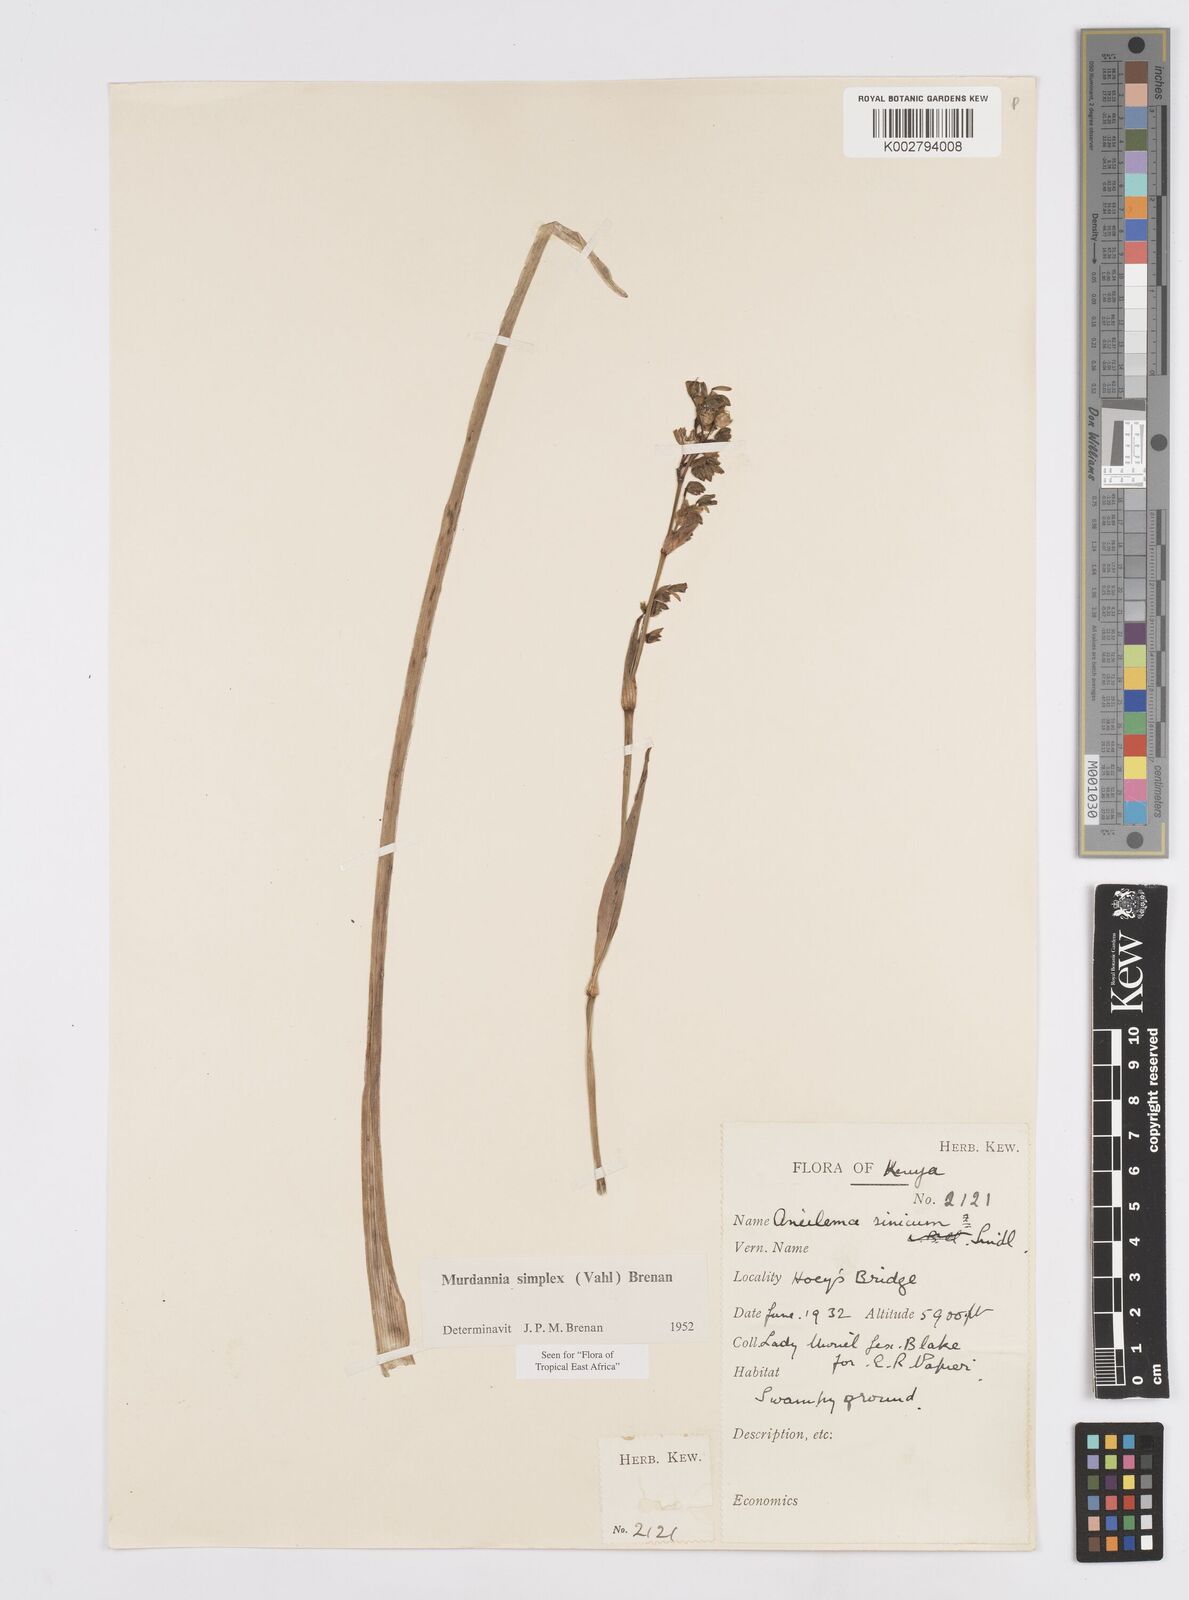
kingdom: Plantae
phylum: Tracheophyta
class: Liliopsida
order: Commelinales
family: Commelinaceae
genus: Murdannia
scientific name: Murdannia simplex
